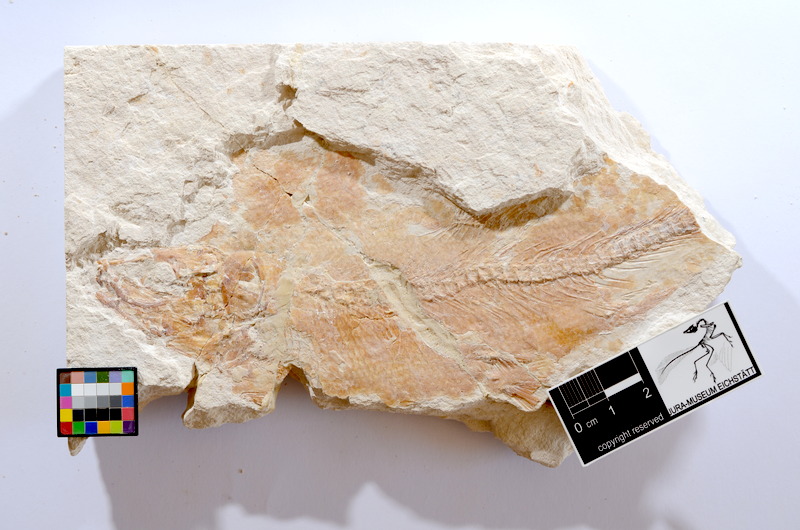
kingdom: Animalia
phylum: Chordata
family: Ascalaboidae
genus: Tharsis
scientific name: Tharsis dubius
